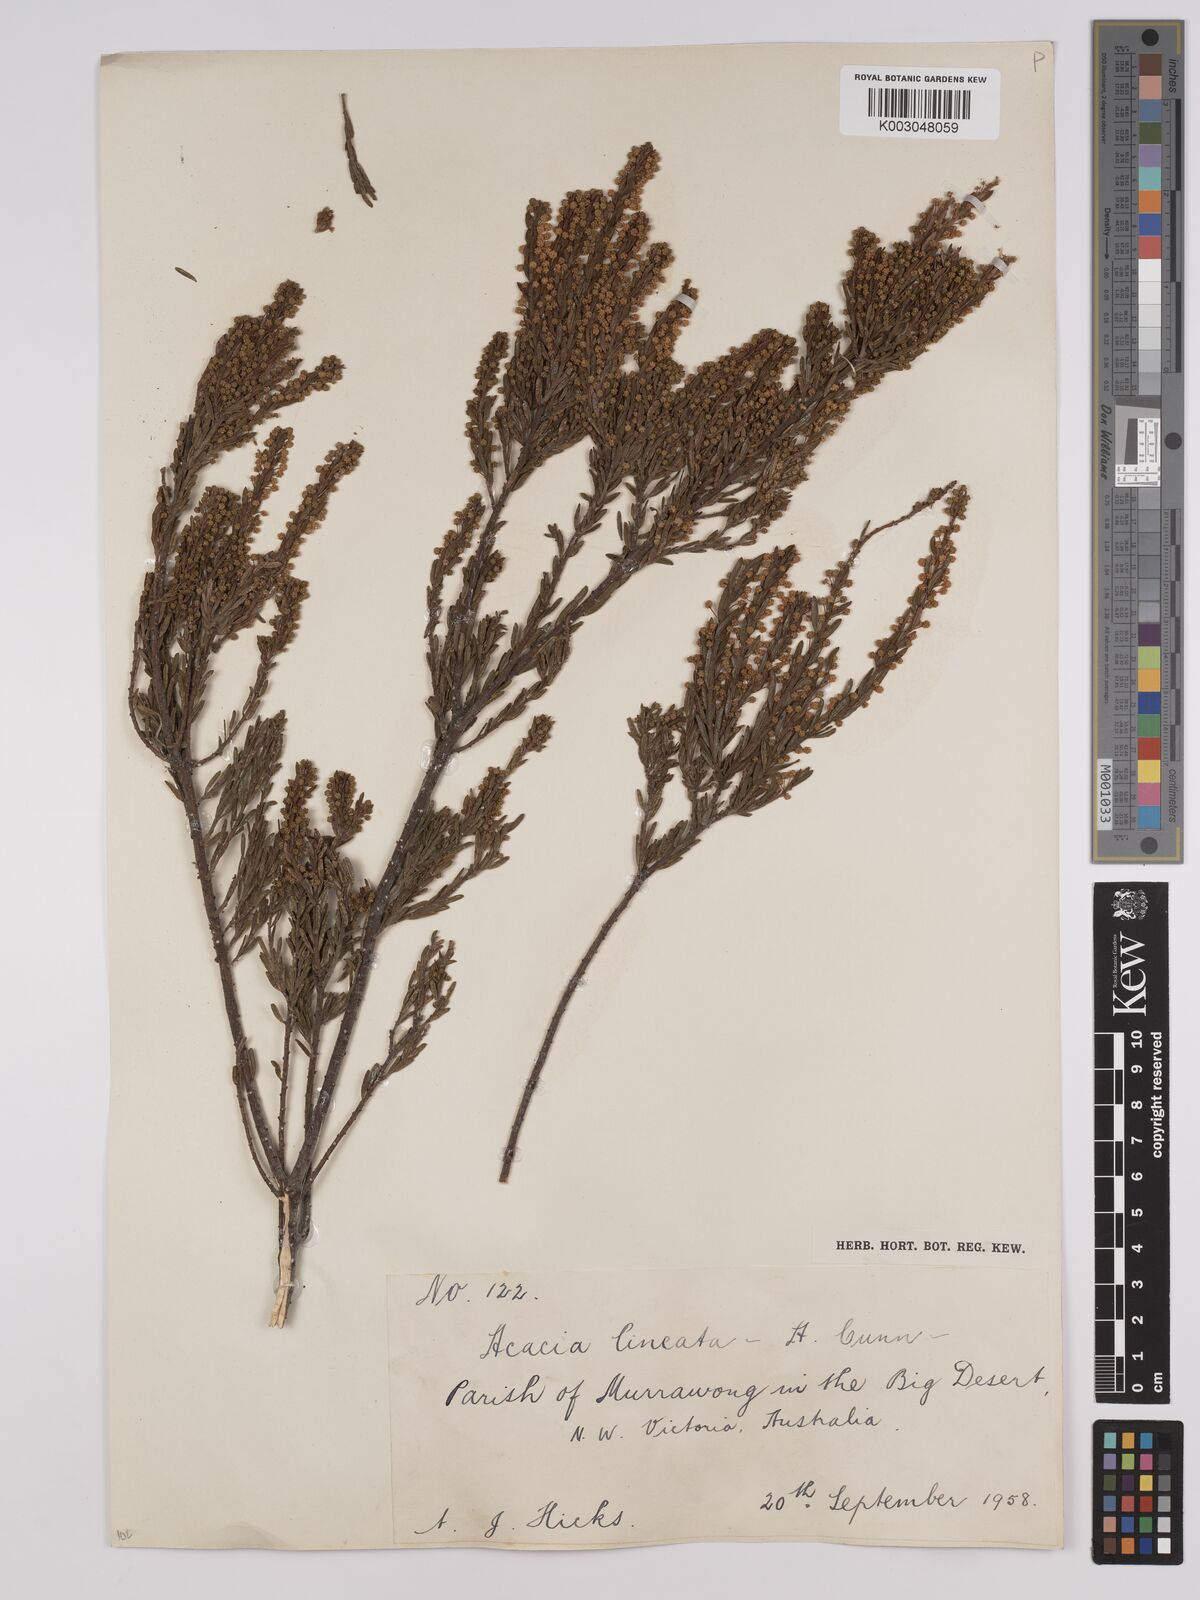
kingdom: Plantae
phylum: Tracheophyta
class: Magnoliopsida
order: Fabales
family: Fabaceae
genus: Acacia
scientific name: Acacia lineata
